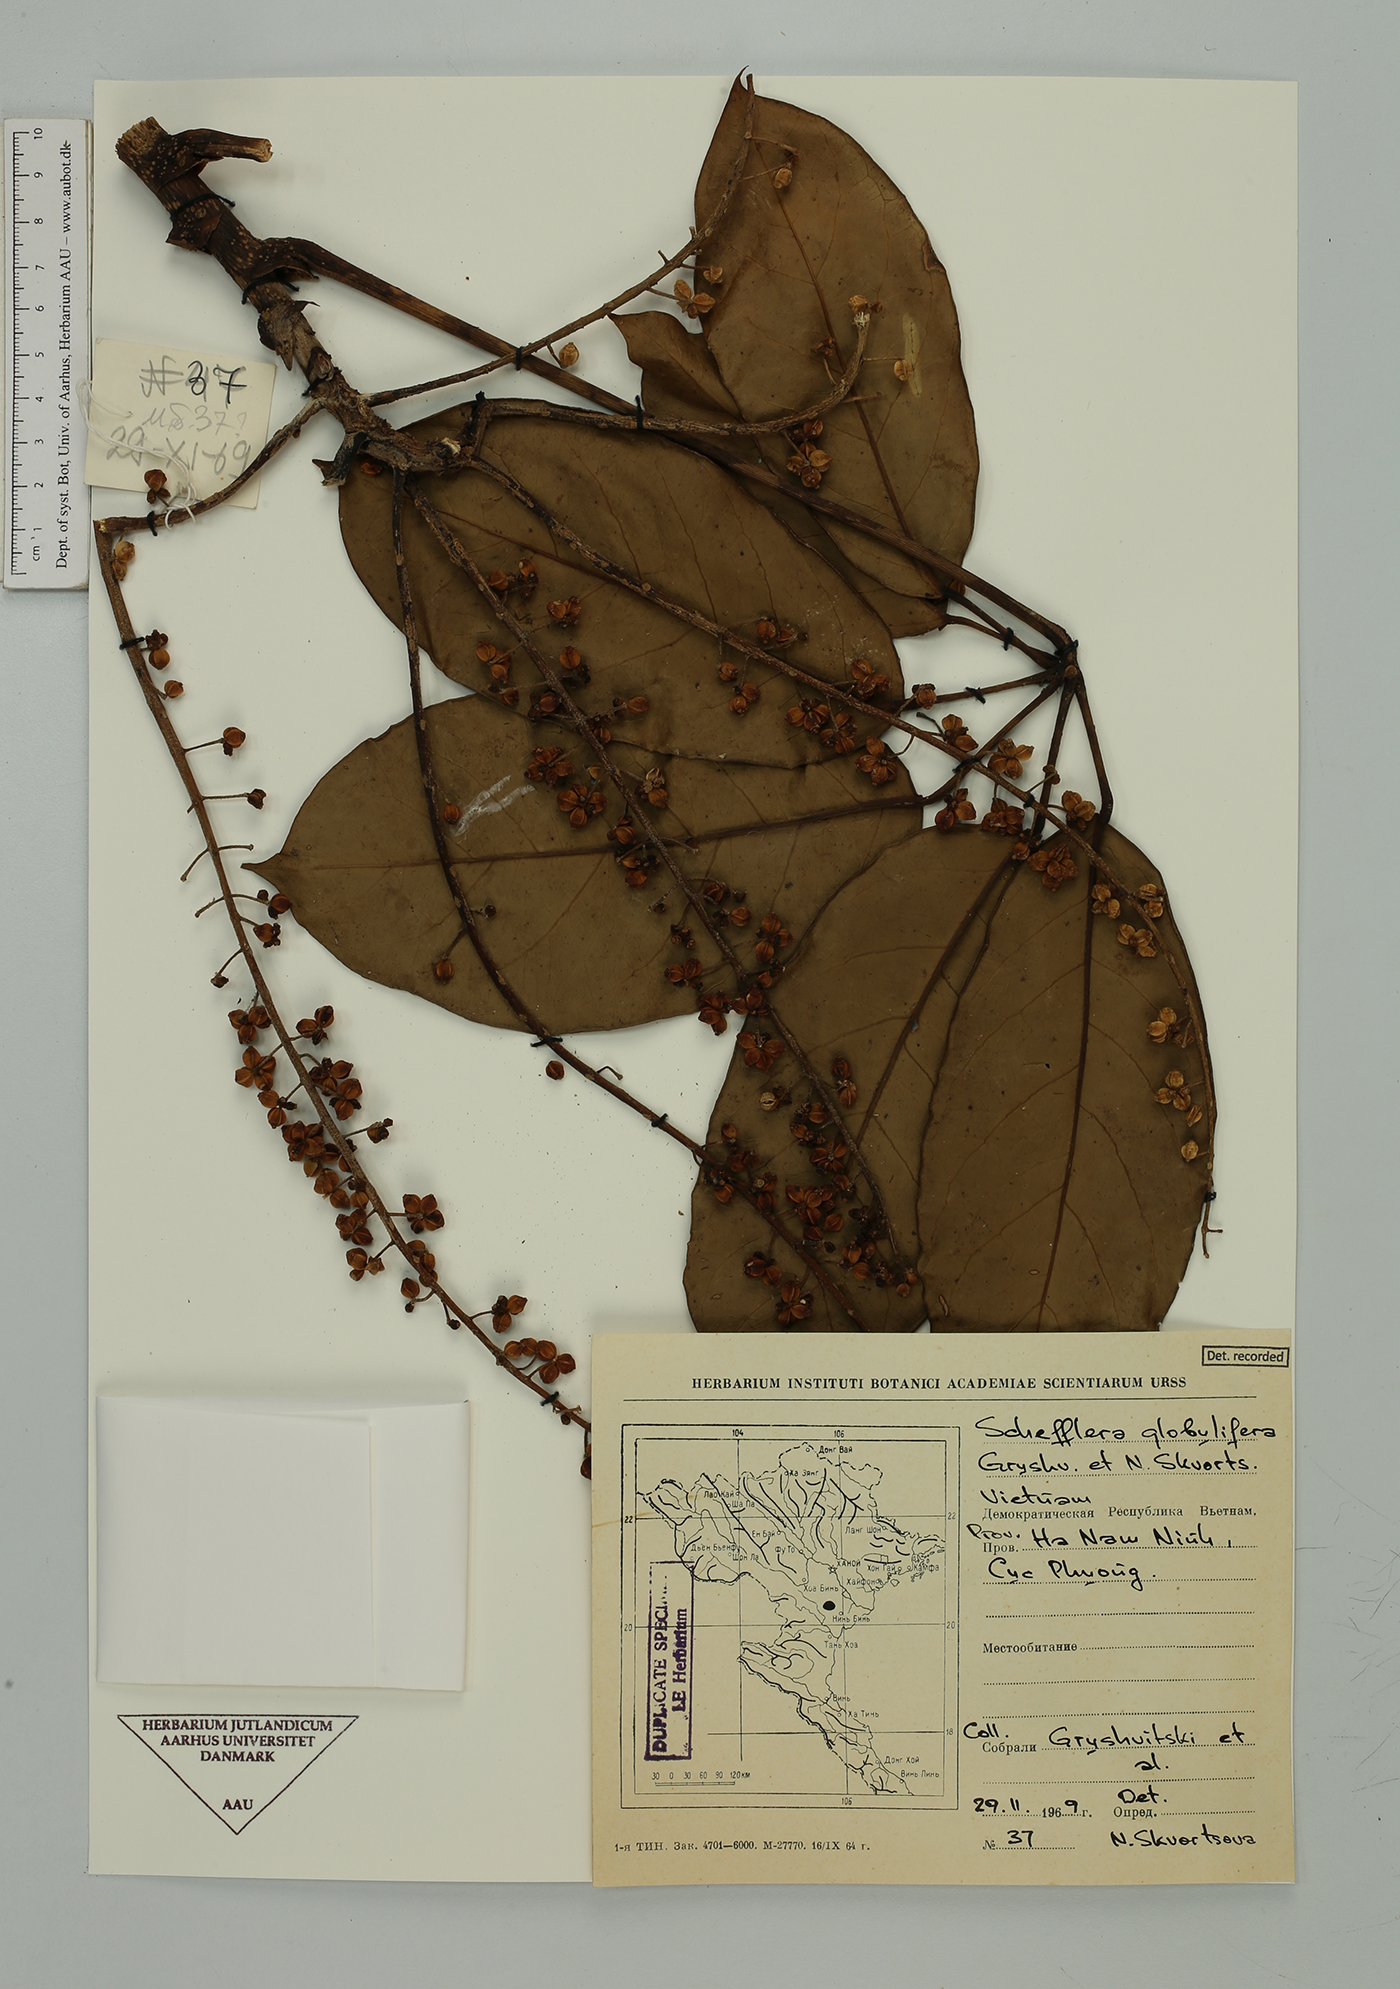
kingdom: Plantae
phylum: Tracheophyta
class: Magnoliopsida
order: Apiales
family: Araliaceae
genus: Heptapleurum
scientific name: Heptapleurum globuliferum
